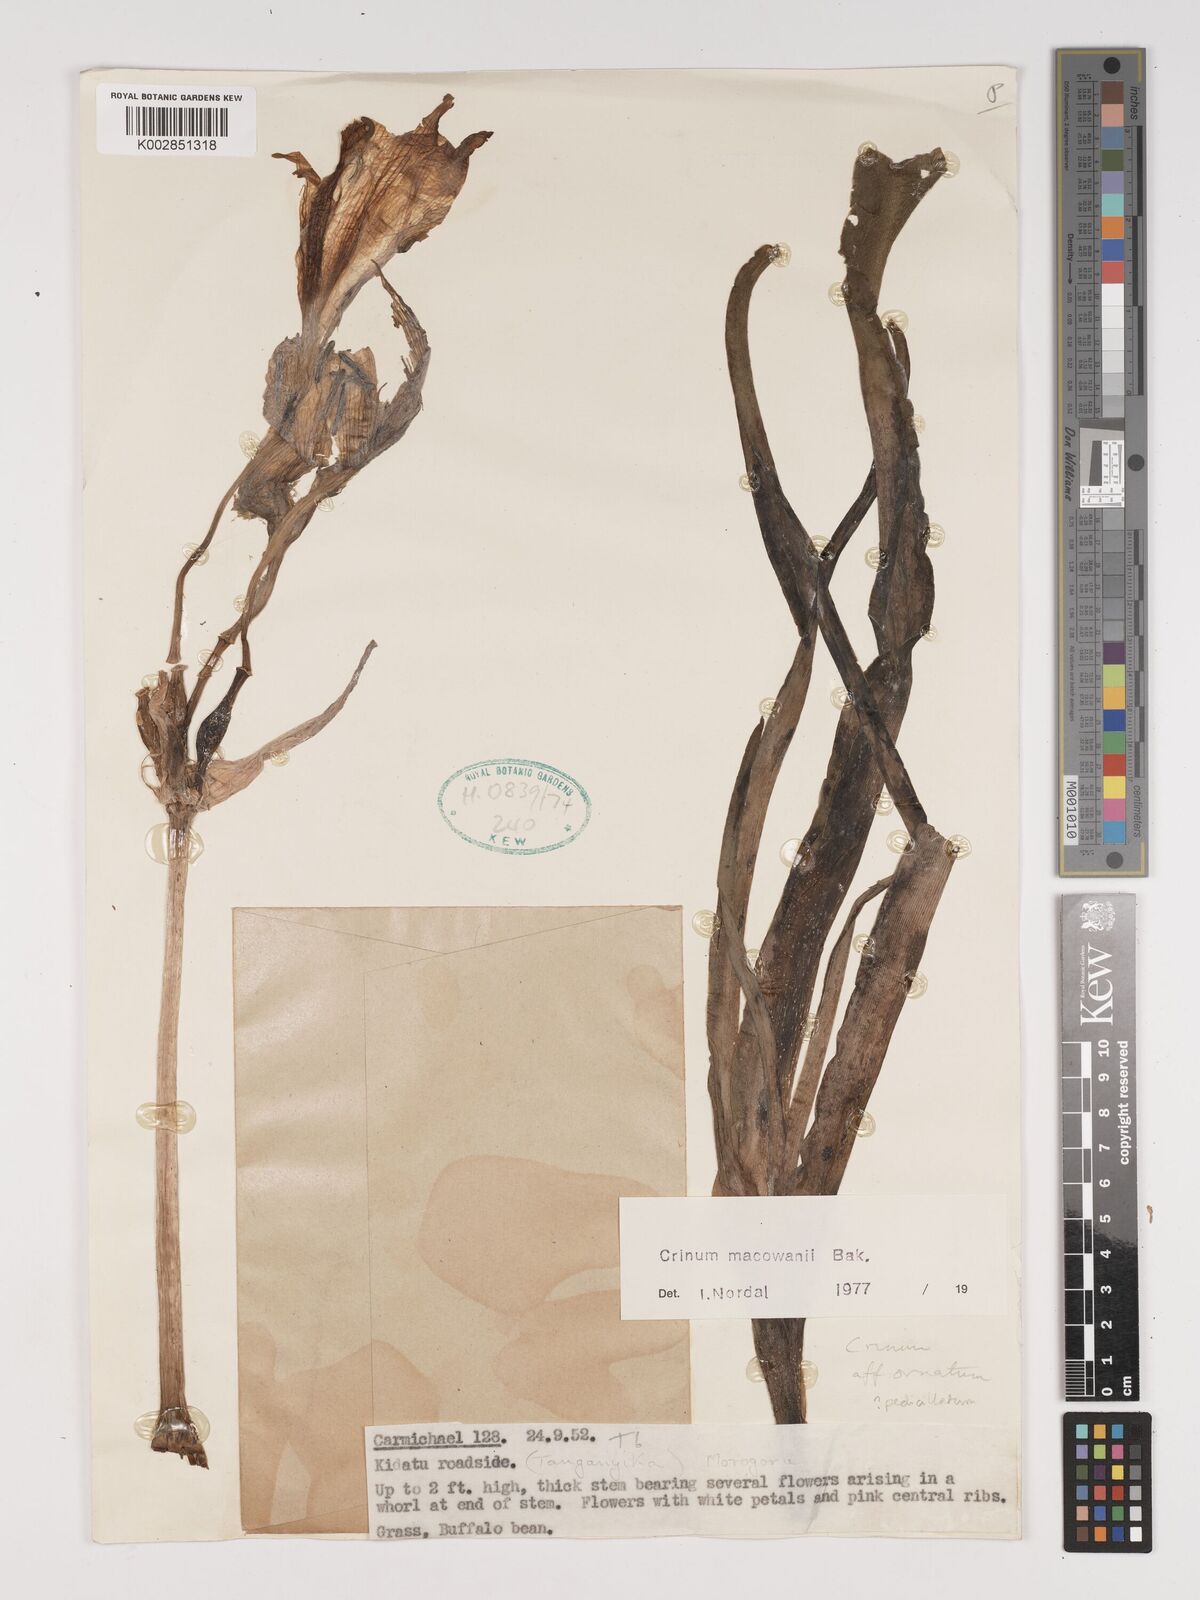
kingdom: Plantae
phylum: Tracheophyta
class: Liliopsida
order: Asparagales
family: Amaryllidaceae
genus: Crinum
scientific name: Crinum macowanii
